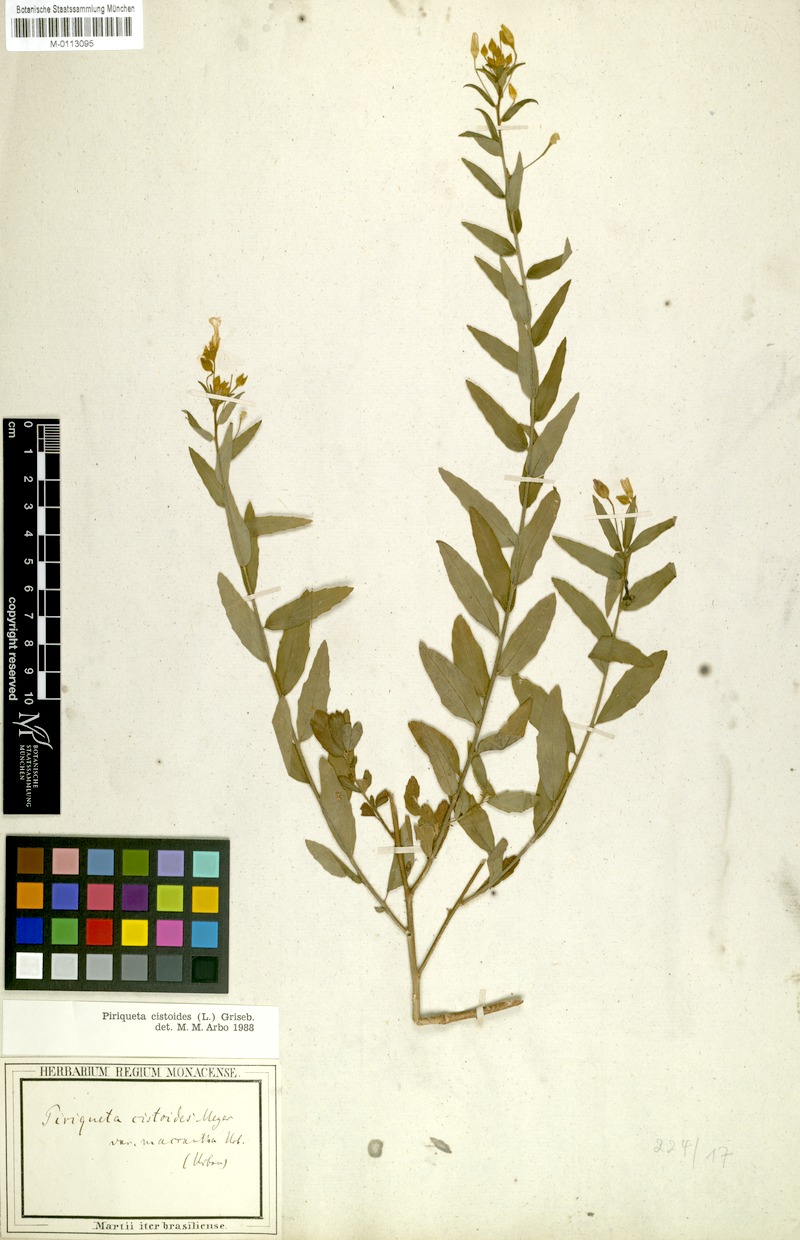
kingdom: Plantae
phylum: Tracheophyta
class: Magnoliopsida
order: Malpighiales
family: Turneraceae
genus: Piriqueta
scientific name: Piriqueta cistoides
